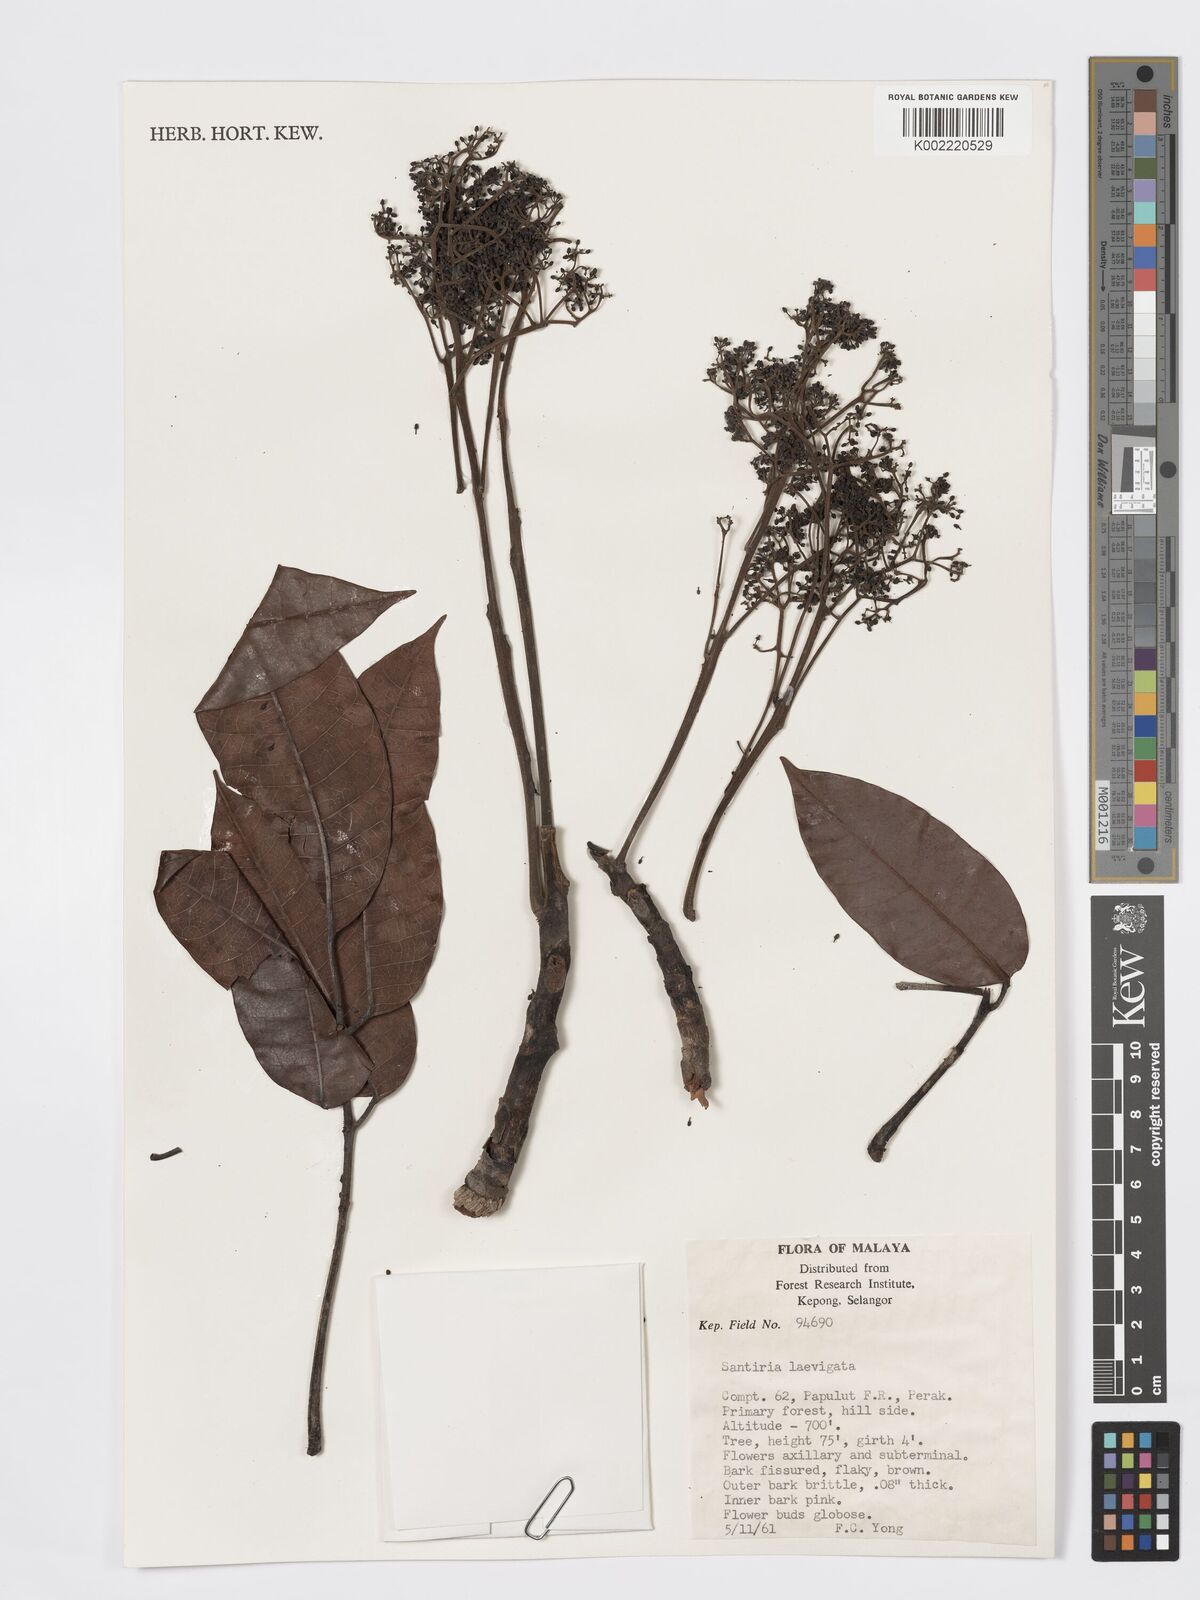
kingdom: Plantae
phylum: Tracheophyta
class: Magnoliopsida
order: Sapindales
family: Burseraceae
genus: Santiria
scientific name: Santiria laevigata
